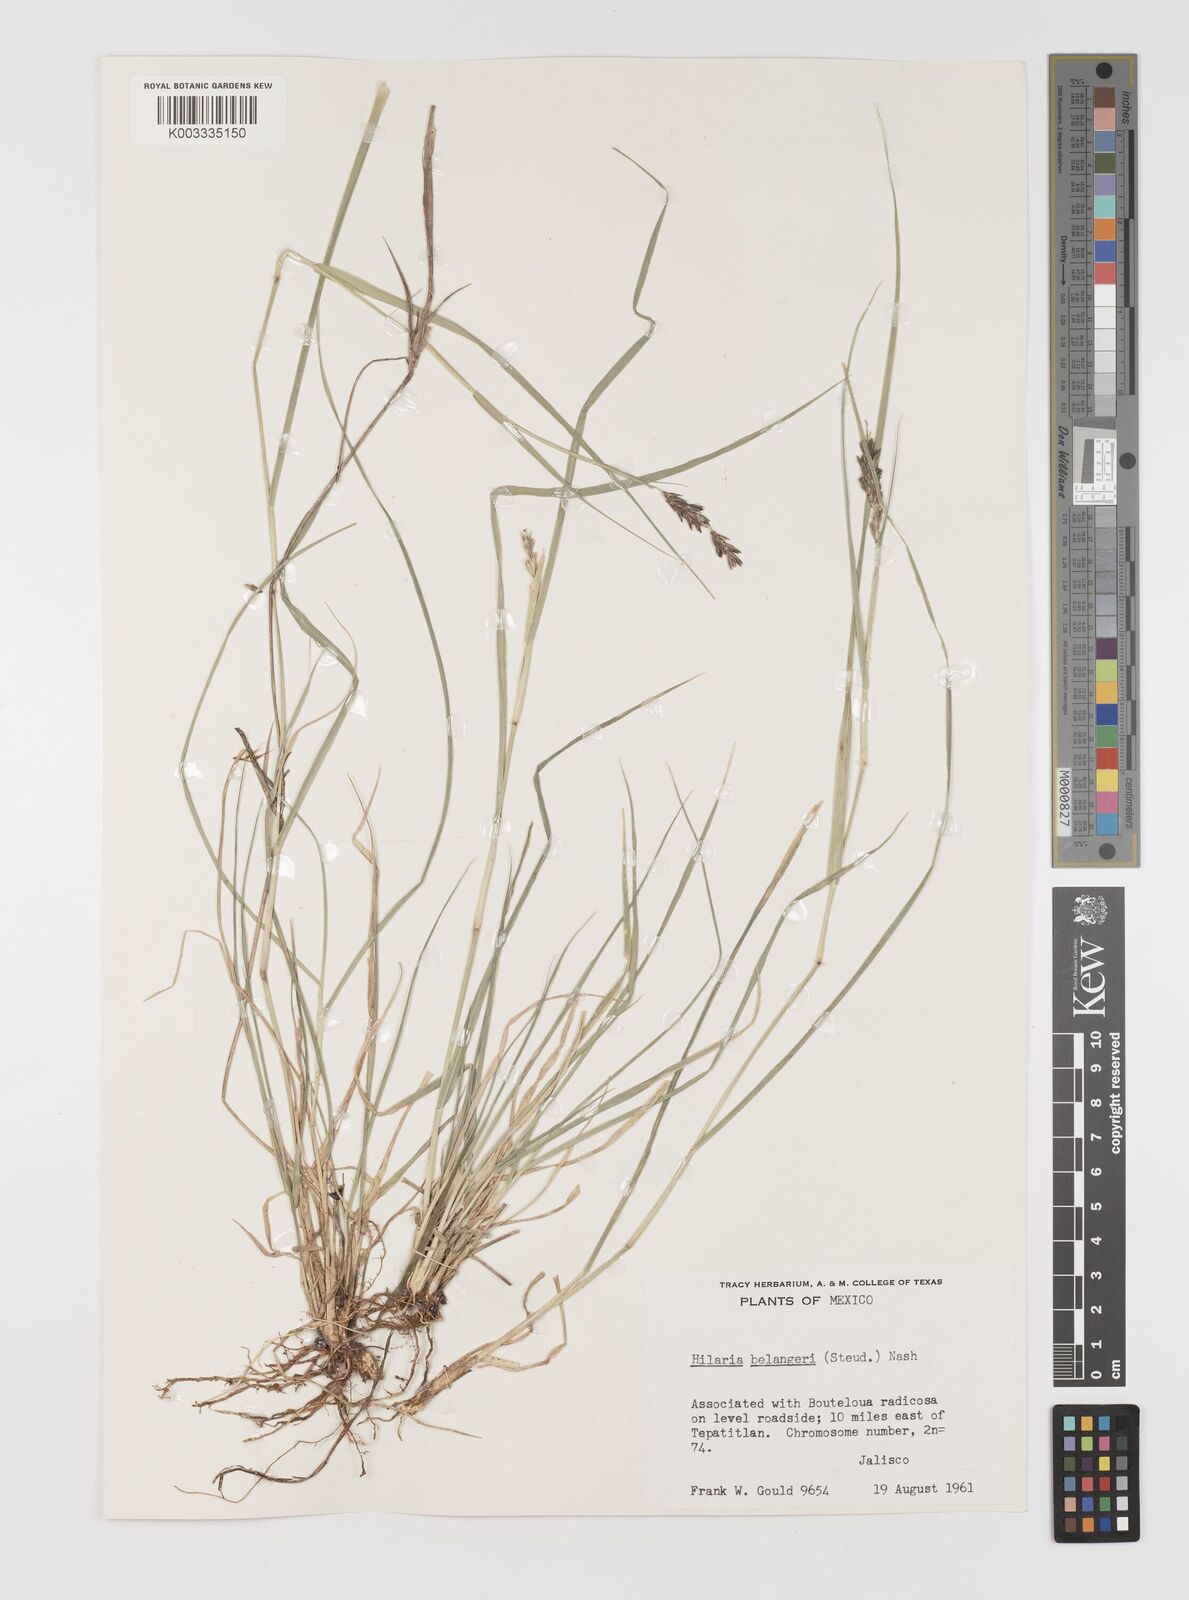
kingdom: Plantae
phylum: Tracheophyta
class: Liliopsida
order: Poales
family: Poaceae
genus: Hilaria
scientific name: Hilaria belangeri
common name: Curly-mesquite
